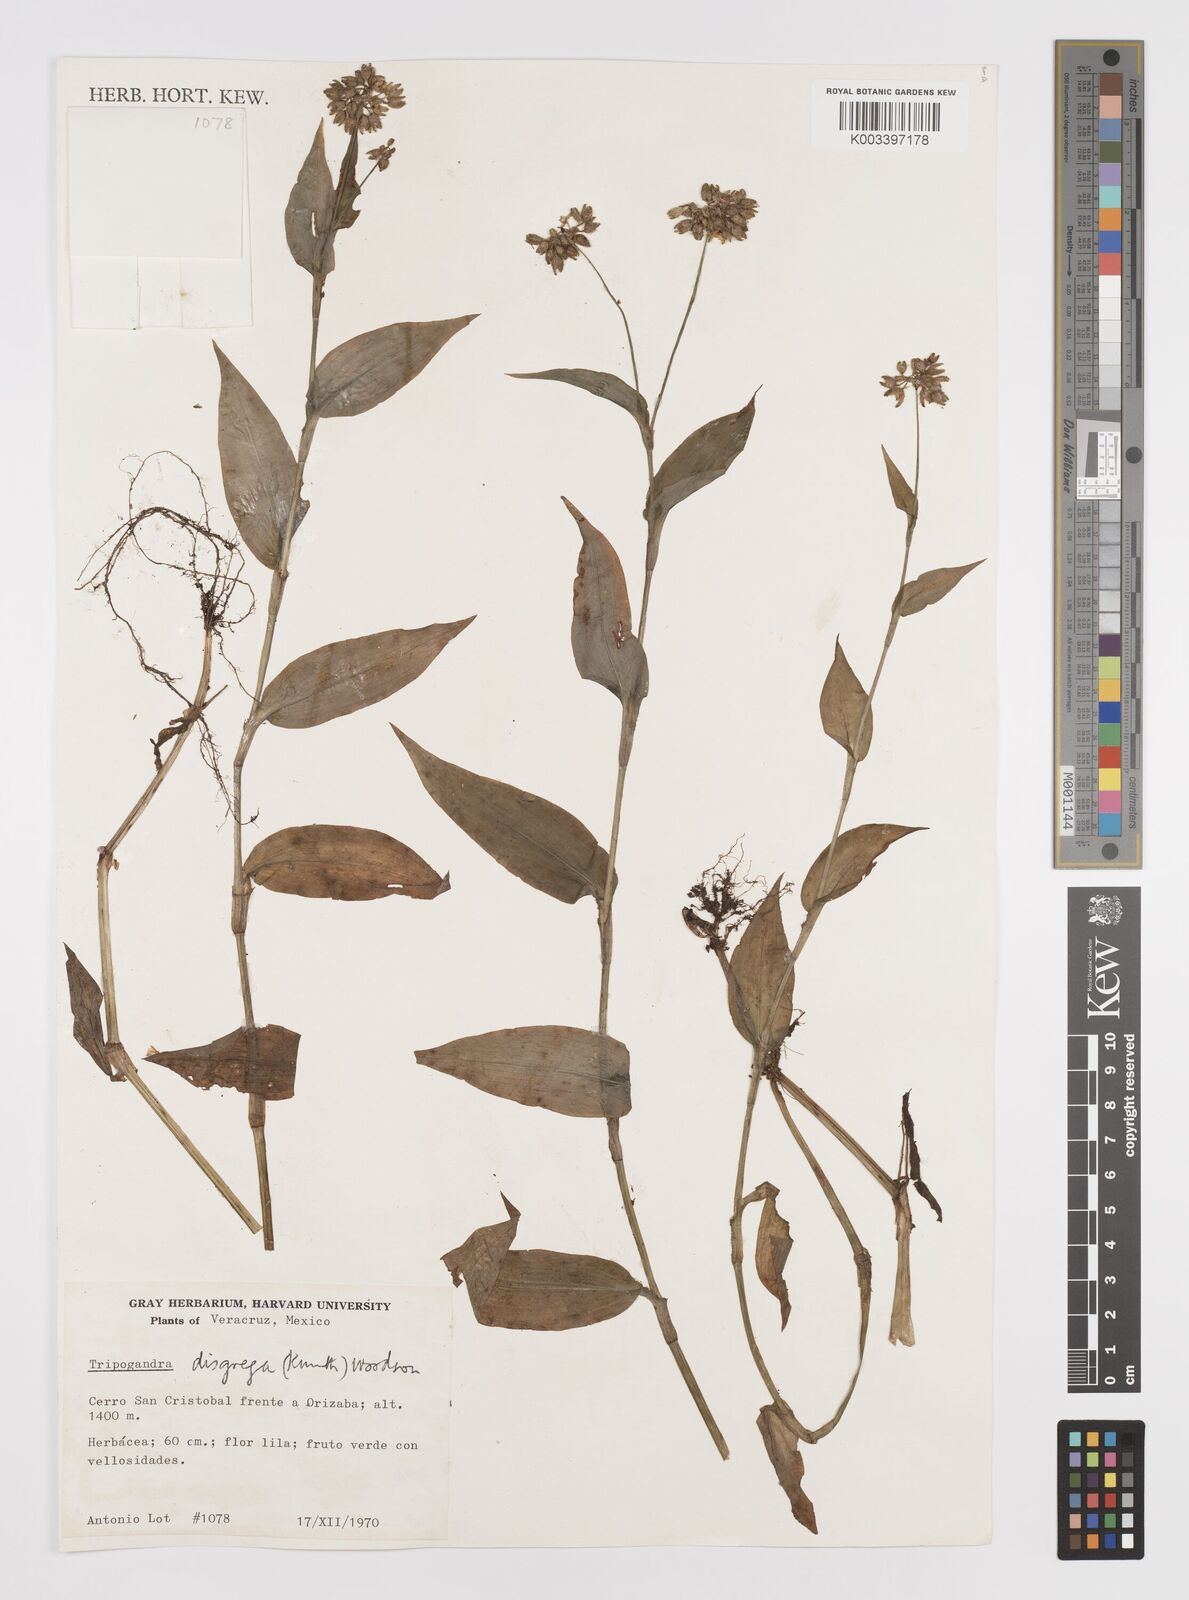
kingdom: Plantae
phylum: Tracheophyta
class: Liliopsida
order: Commelinales
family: Commelinaceae
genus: Callisia
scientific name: Callisia disgrega
